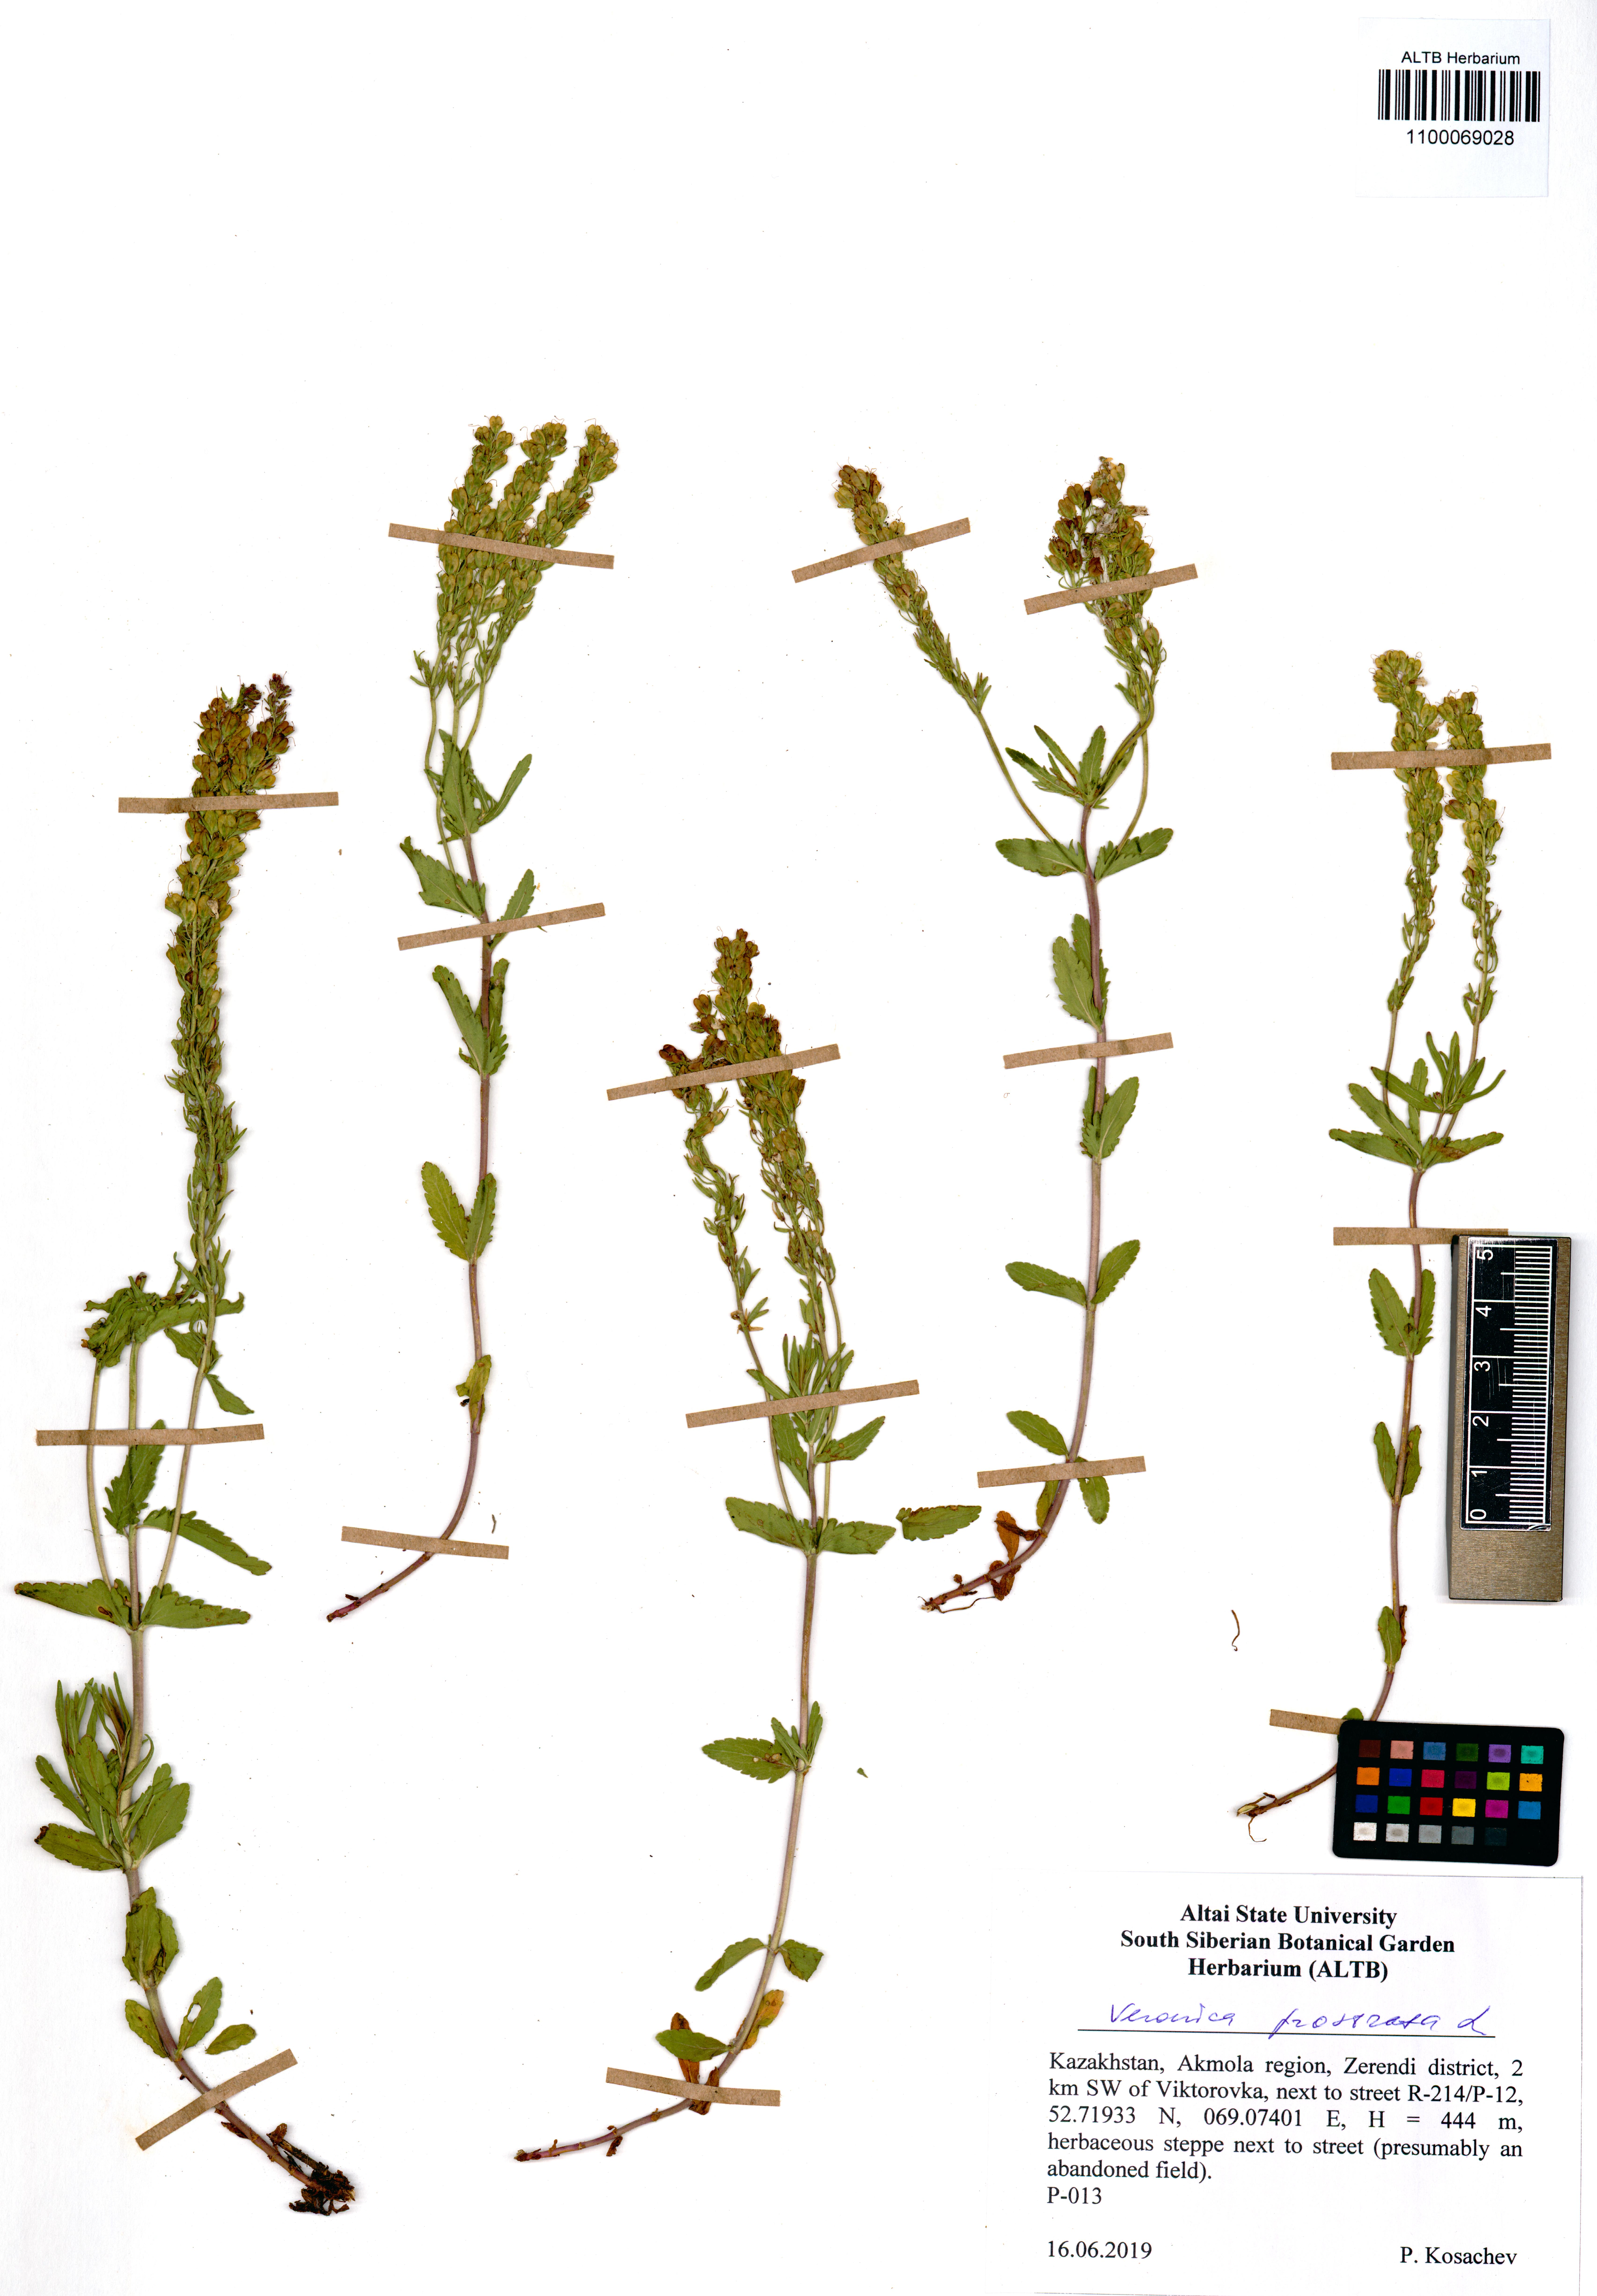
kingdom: Plantae
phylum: Tracheophyta
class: Magnoliopsida
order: Lamiales
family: Plantaginaceae
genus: Veronica
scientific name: Veronica prostrata
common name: Prostrate speedwell
